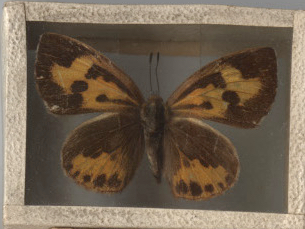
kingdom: Animalia
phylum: Arthropoda
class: Insecta
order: Lepidoptera
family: Lycaenidae
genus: Feniseca
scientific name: Feniseca tarquinius
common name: Harvester
